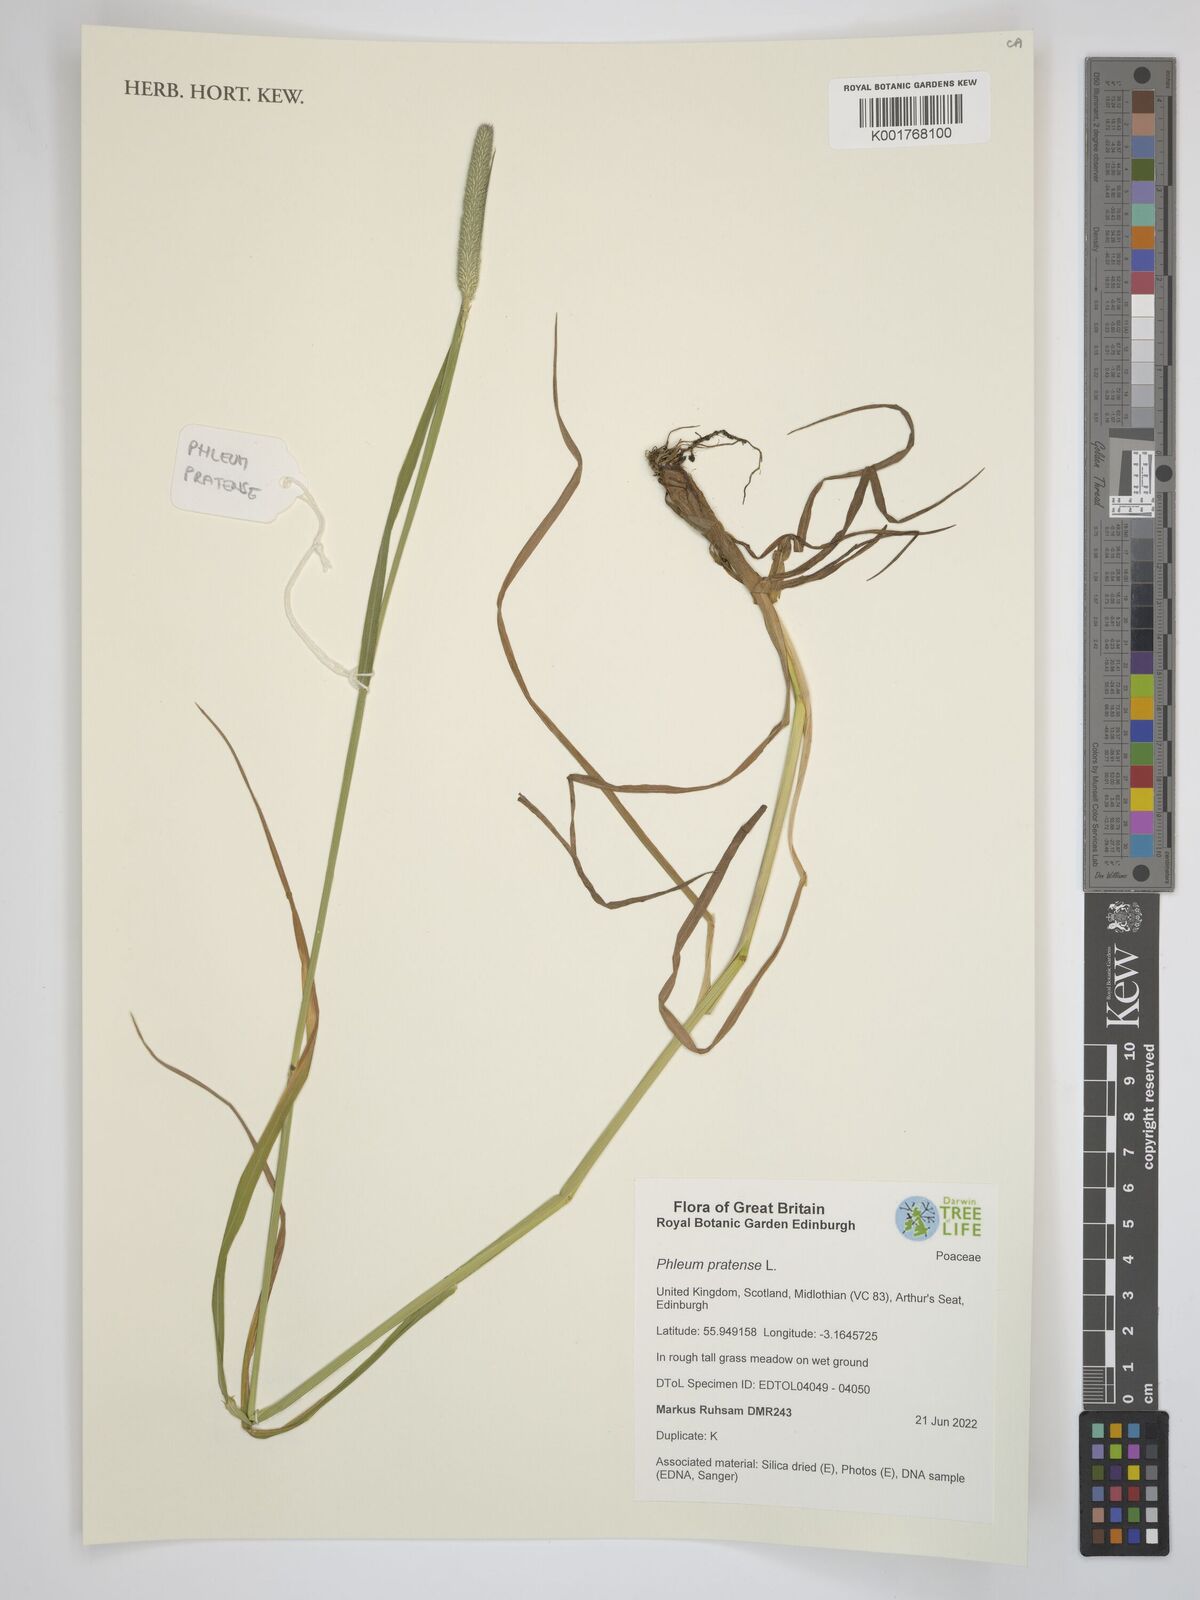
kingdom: Plantae
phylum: Tracheophyta
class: Liliopsida
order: Poales
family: Poaceae
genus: Phleum
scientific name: Phleum pratense
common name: Timothy grass
